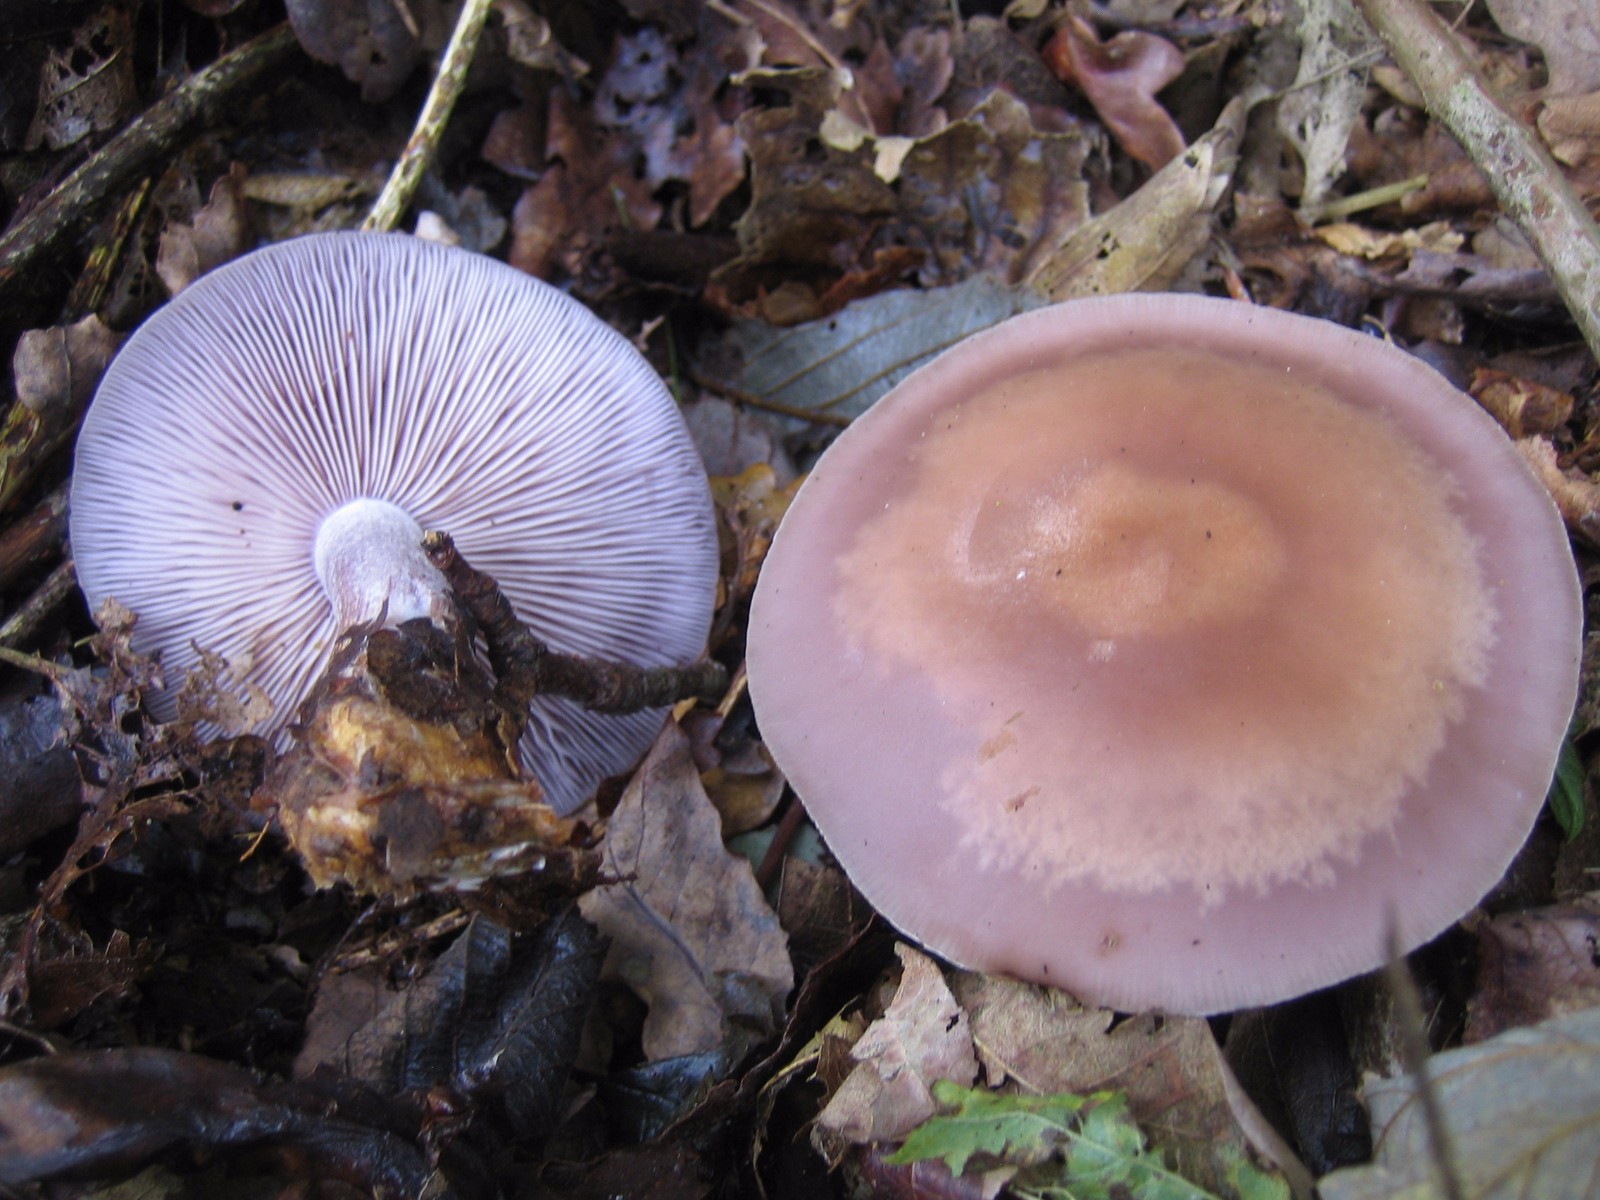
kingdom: Fungi
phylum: Basidiomycota
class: Agaricomycetes
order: Agaricales
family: Tricholomataceae
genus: Lepista
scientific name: Lepista nuda
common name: violet hekseringshat
